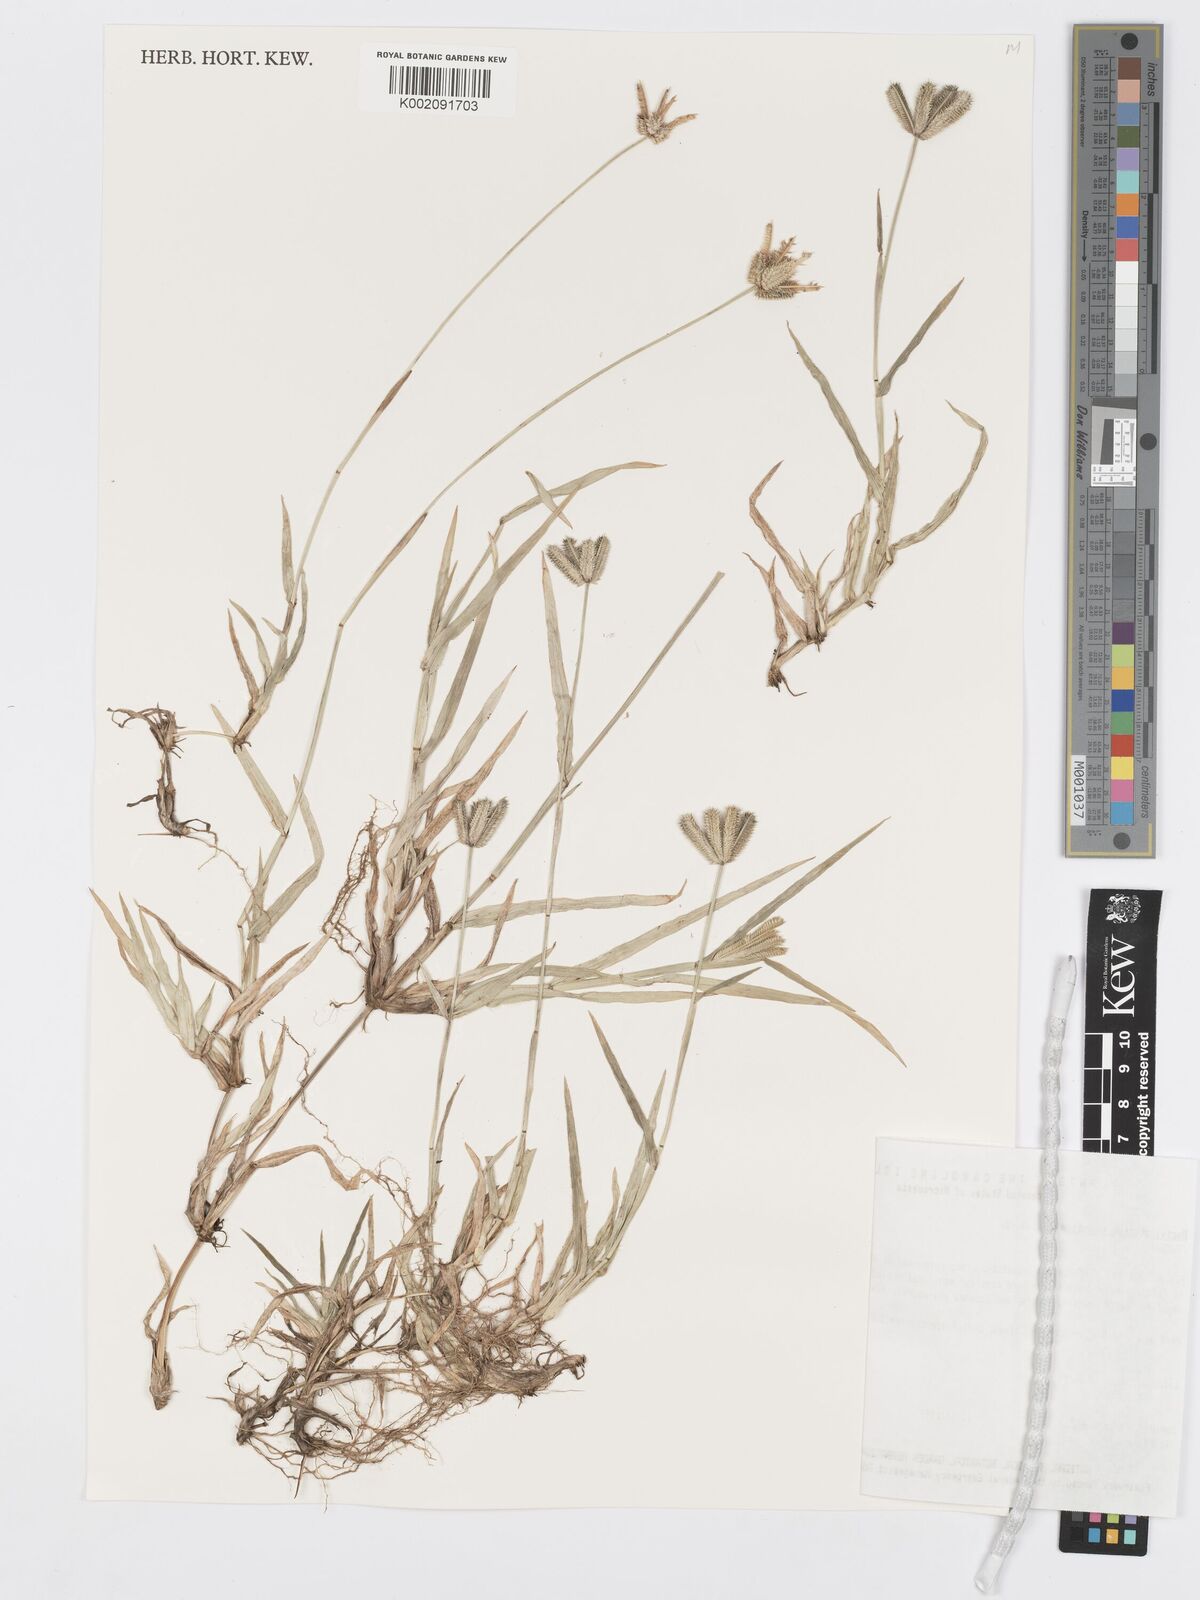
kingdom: Plantae
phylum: Tracheophyta
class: Liliopsida
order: Poales
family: Poaceae
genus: Dactyloctenium
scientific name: Dactyloctenium aegyptium
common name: Egyptian grass
